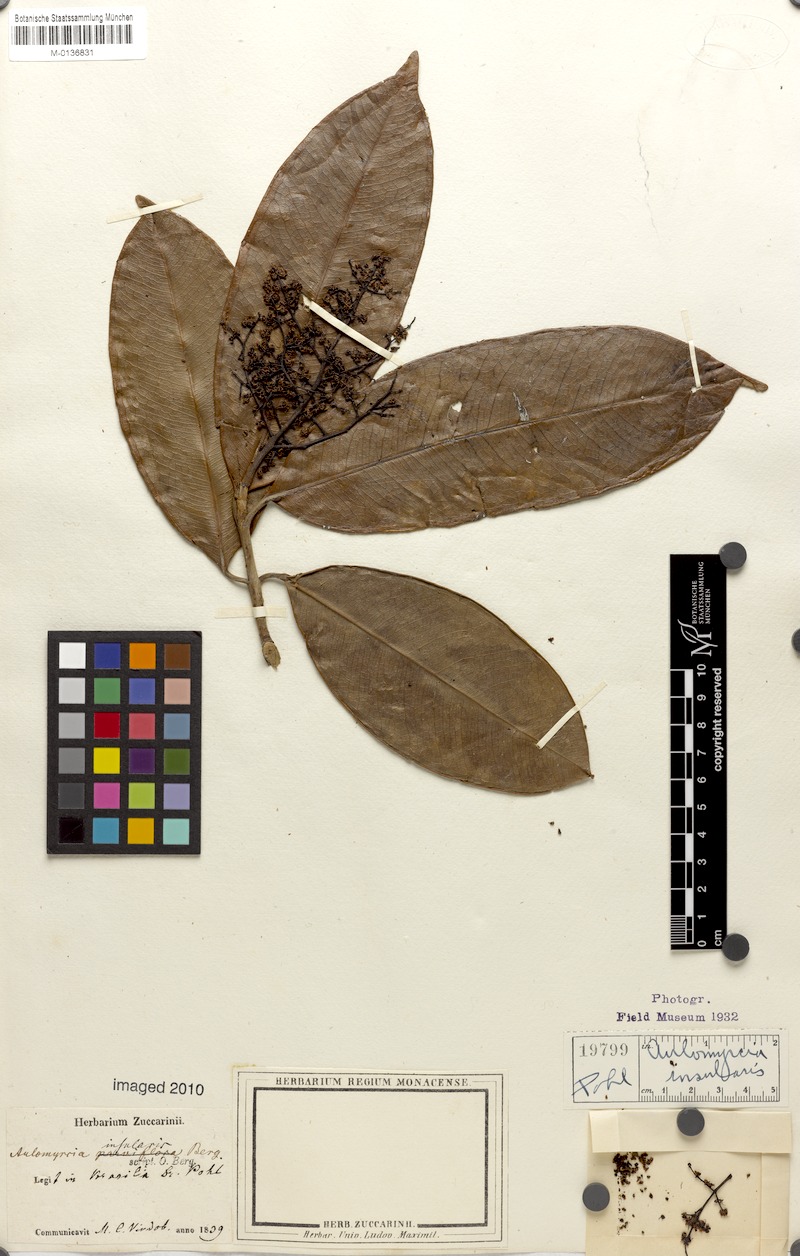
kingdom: Plantae
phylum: Tracheophyta
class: Magnoliopsida
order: Myrtales
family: Myrtaceae
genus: Myrcia
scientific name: Myrcia insularis
